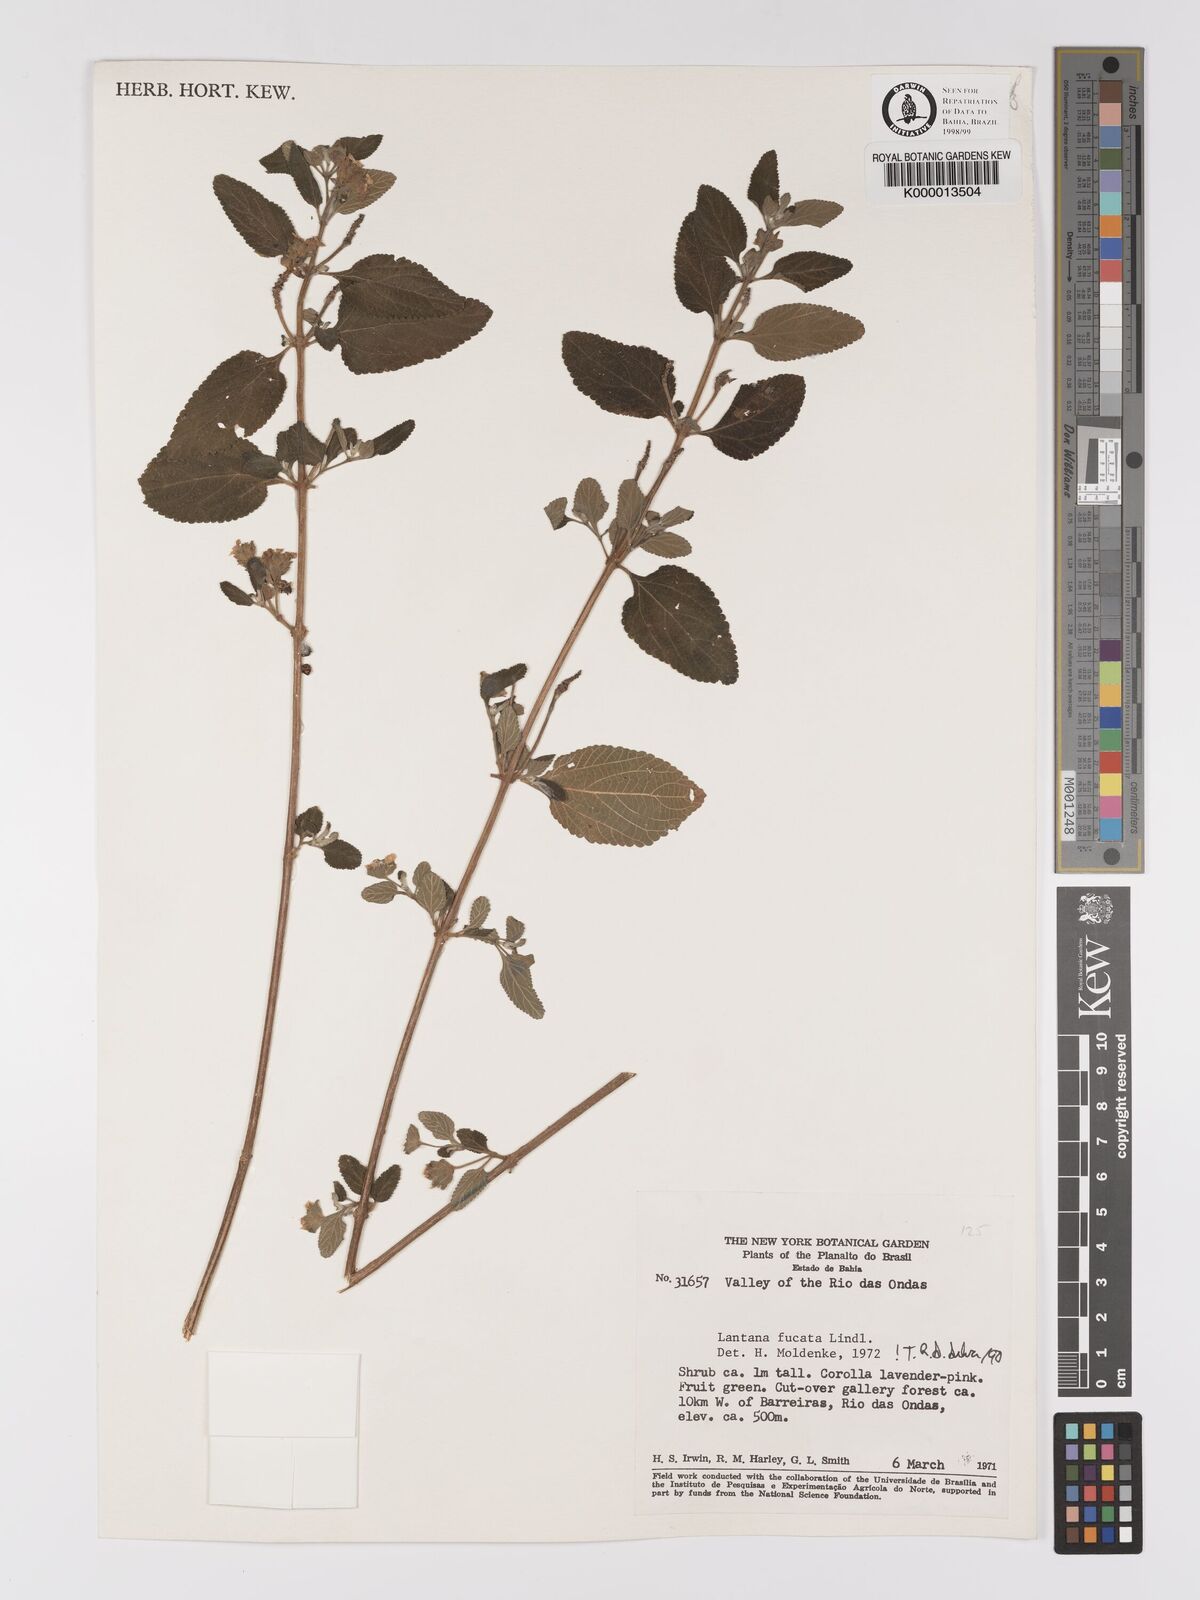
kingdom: Plantae
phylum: Tracheophyta
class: Magnoliopsida
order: Lamiales
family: Verbenaceae
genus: Lantana
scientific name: Lantana fucata
